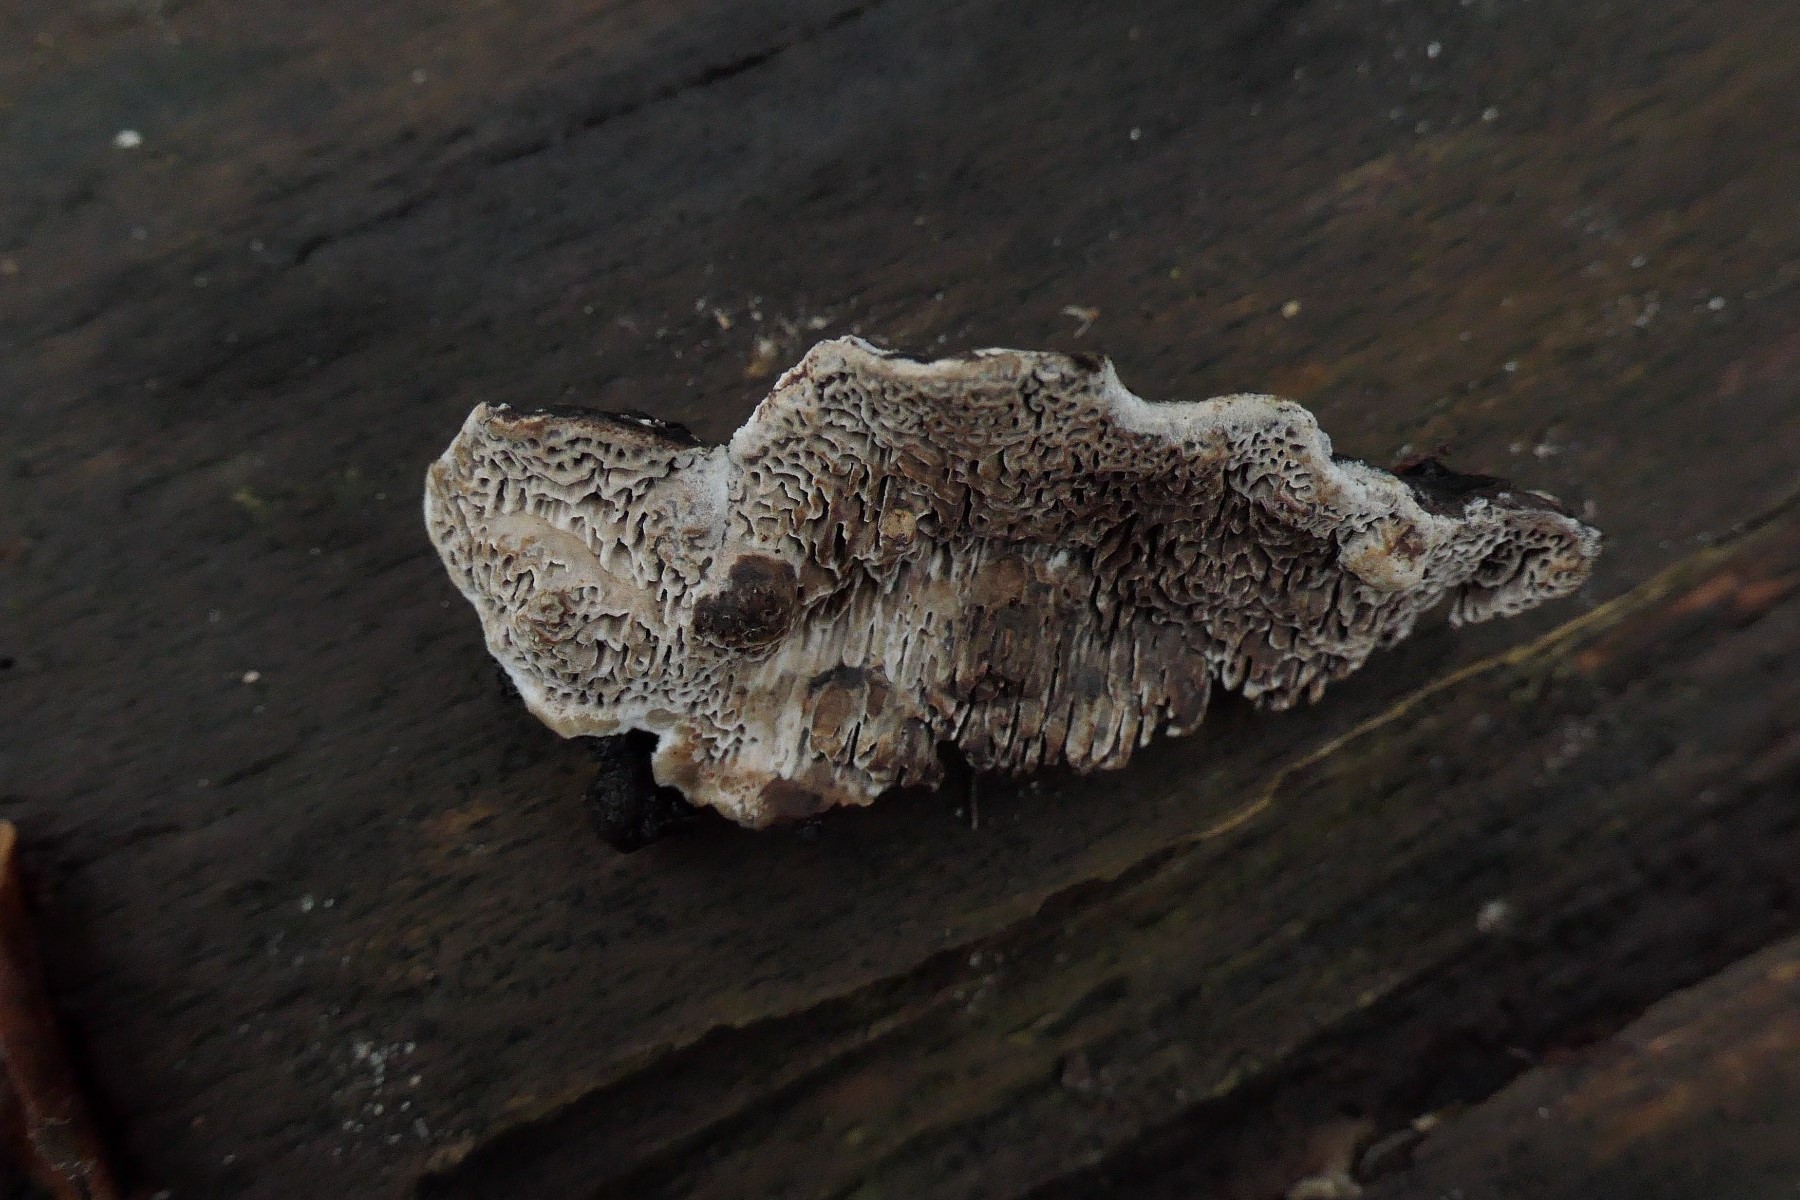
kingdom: Fungi
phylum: Basidiomycota
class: Agaricomycetes
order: Polyporales
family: Polyporaceae
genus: Podofomes
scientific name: Podofomes mollis
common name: blød begporesvamp
